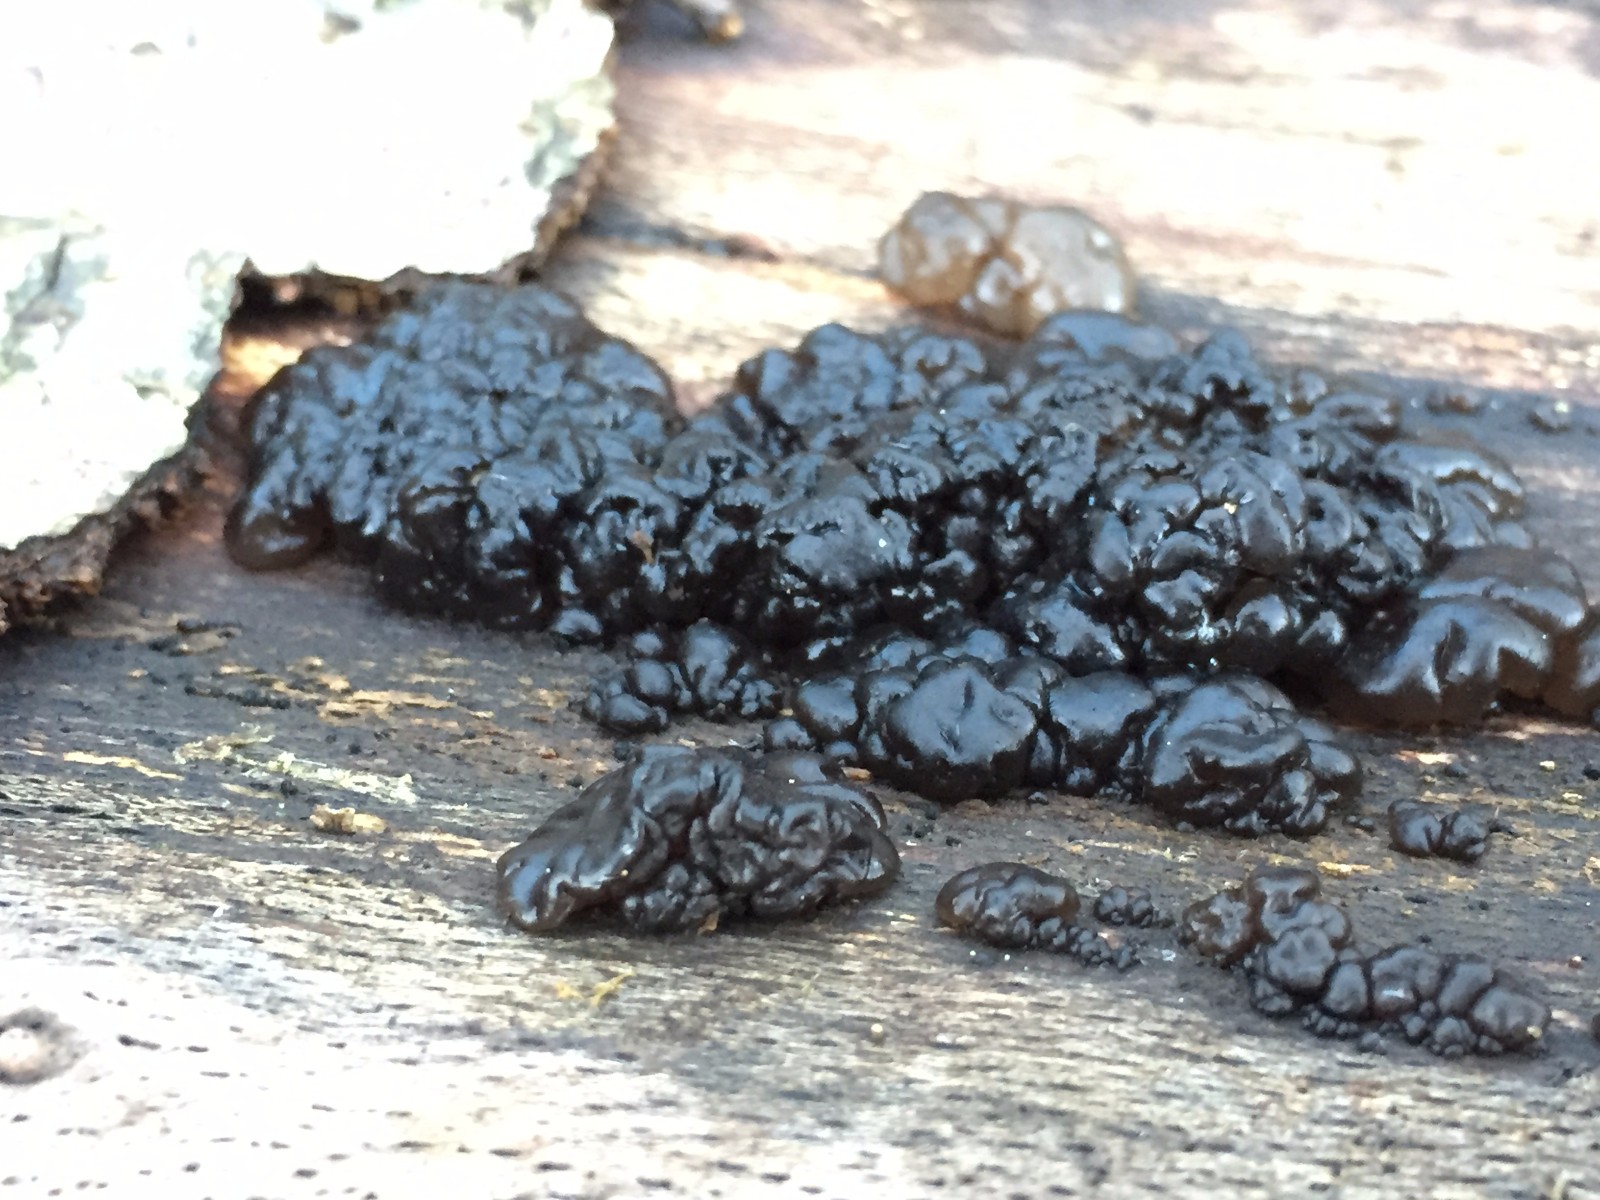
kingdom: Fungi
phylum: Basidiomycota
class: Agaricomycetes
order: Auriculariales
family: Auriculariaceae
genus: Exidia
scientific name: Exidia nigricans
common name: almindelig bævretop
